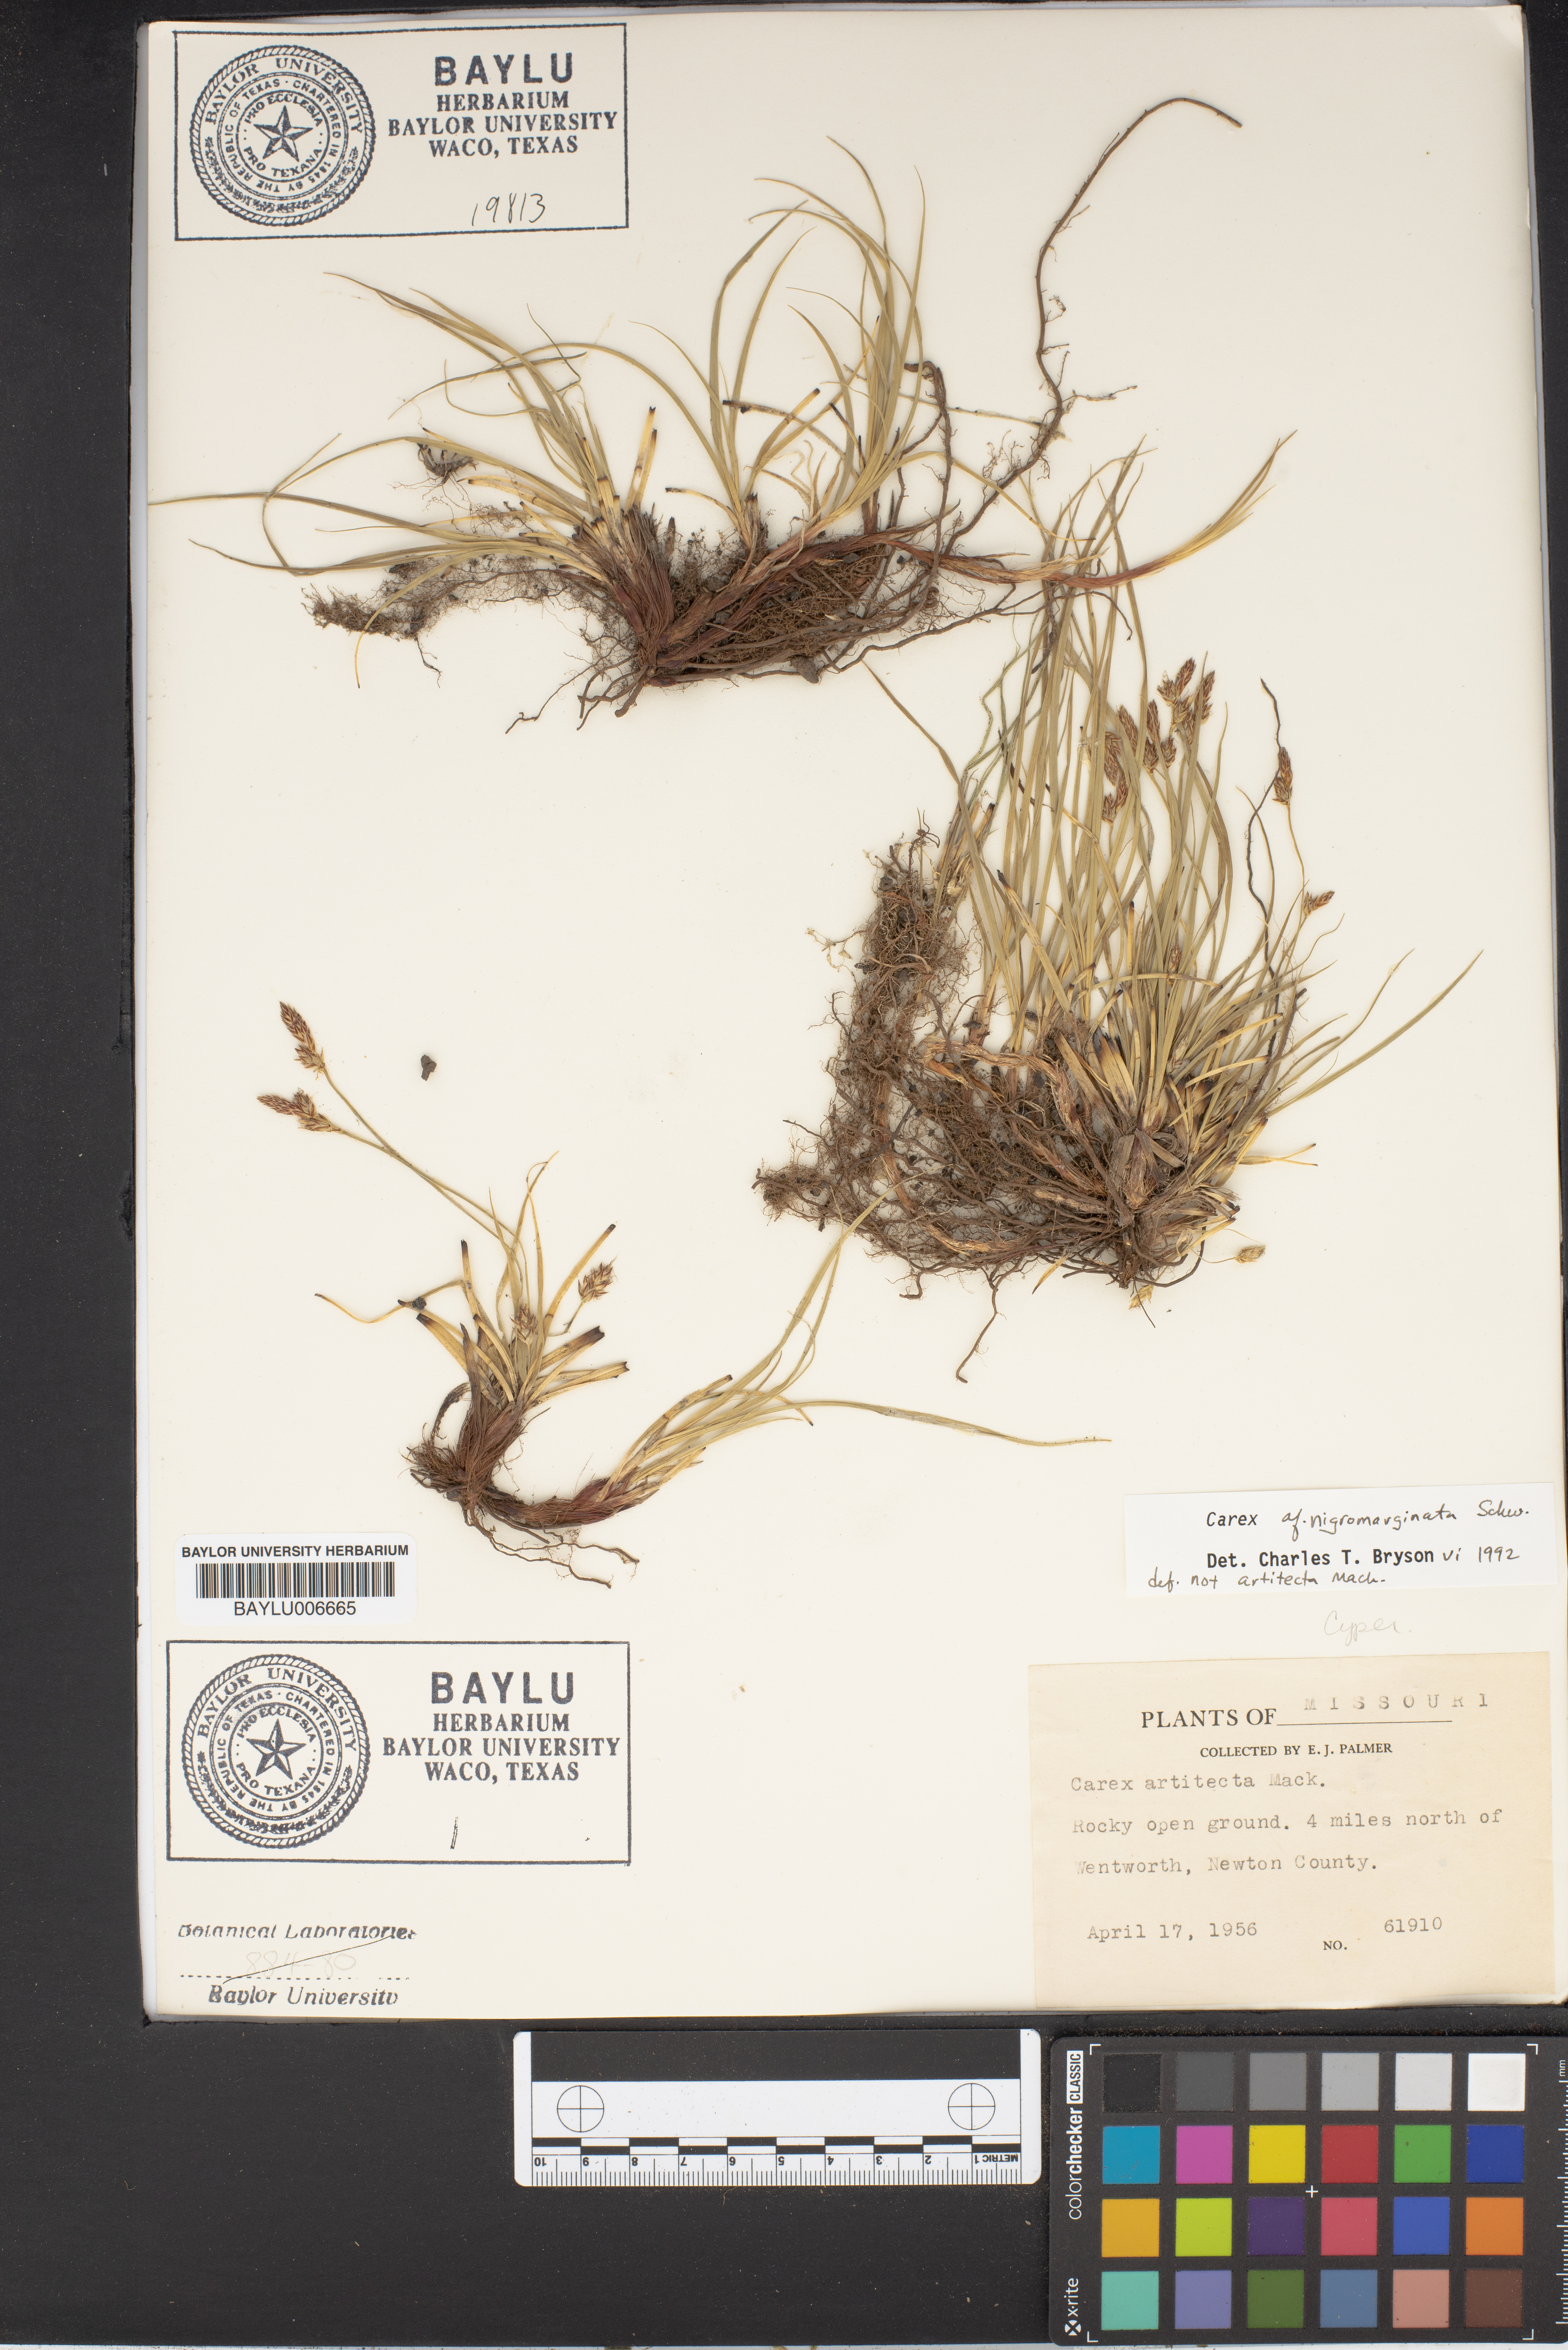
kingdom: Plantae
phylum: Tracheophyta
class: Liliopsida
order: Poales
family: Cyperaceae
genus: Carex
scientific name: Carex nigromarginata
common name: Black-edged sedge
